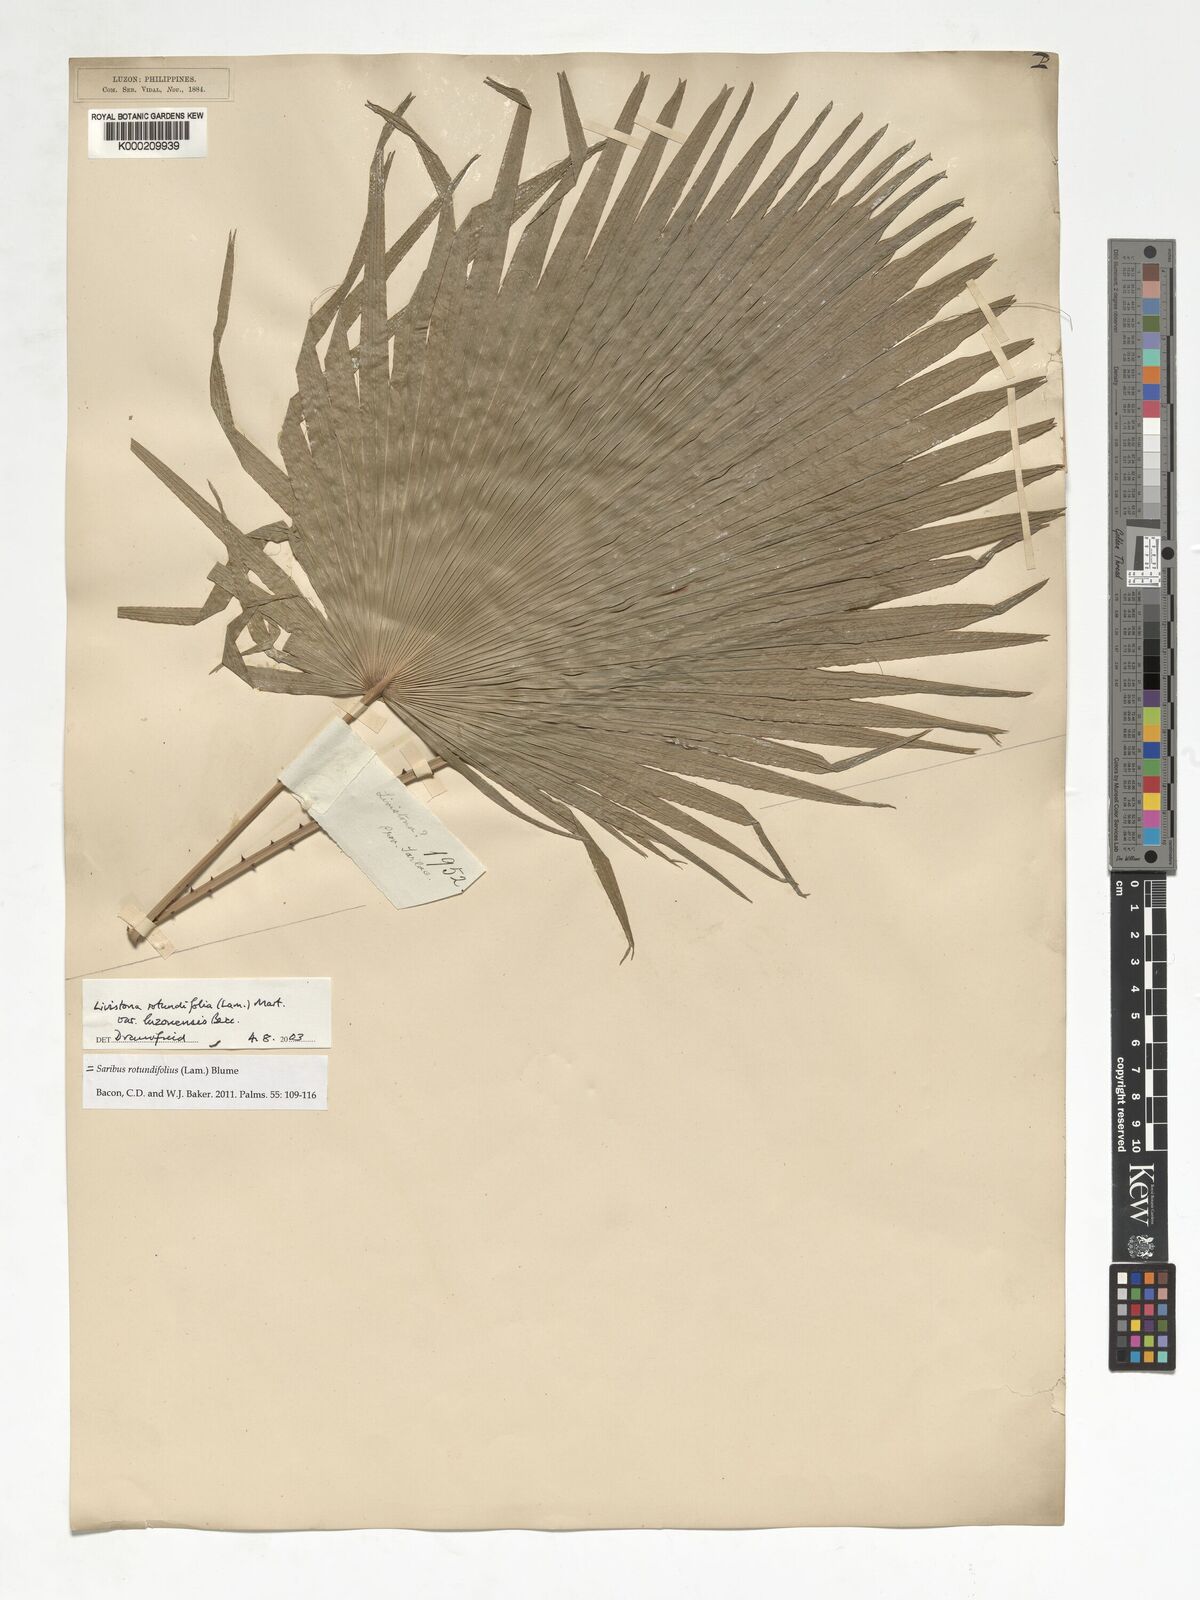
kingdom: Plantae
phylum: Tracheophyta
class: Liliopsida
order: Arecales
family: Arecaceae
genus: Saribus
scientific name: Saribus rotundifolius
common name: Palm
